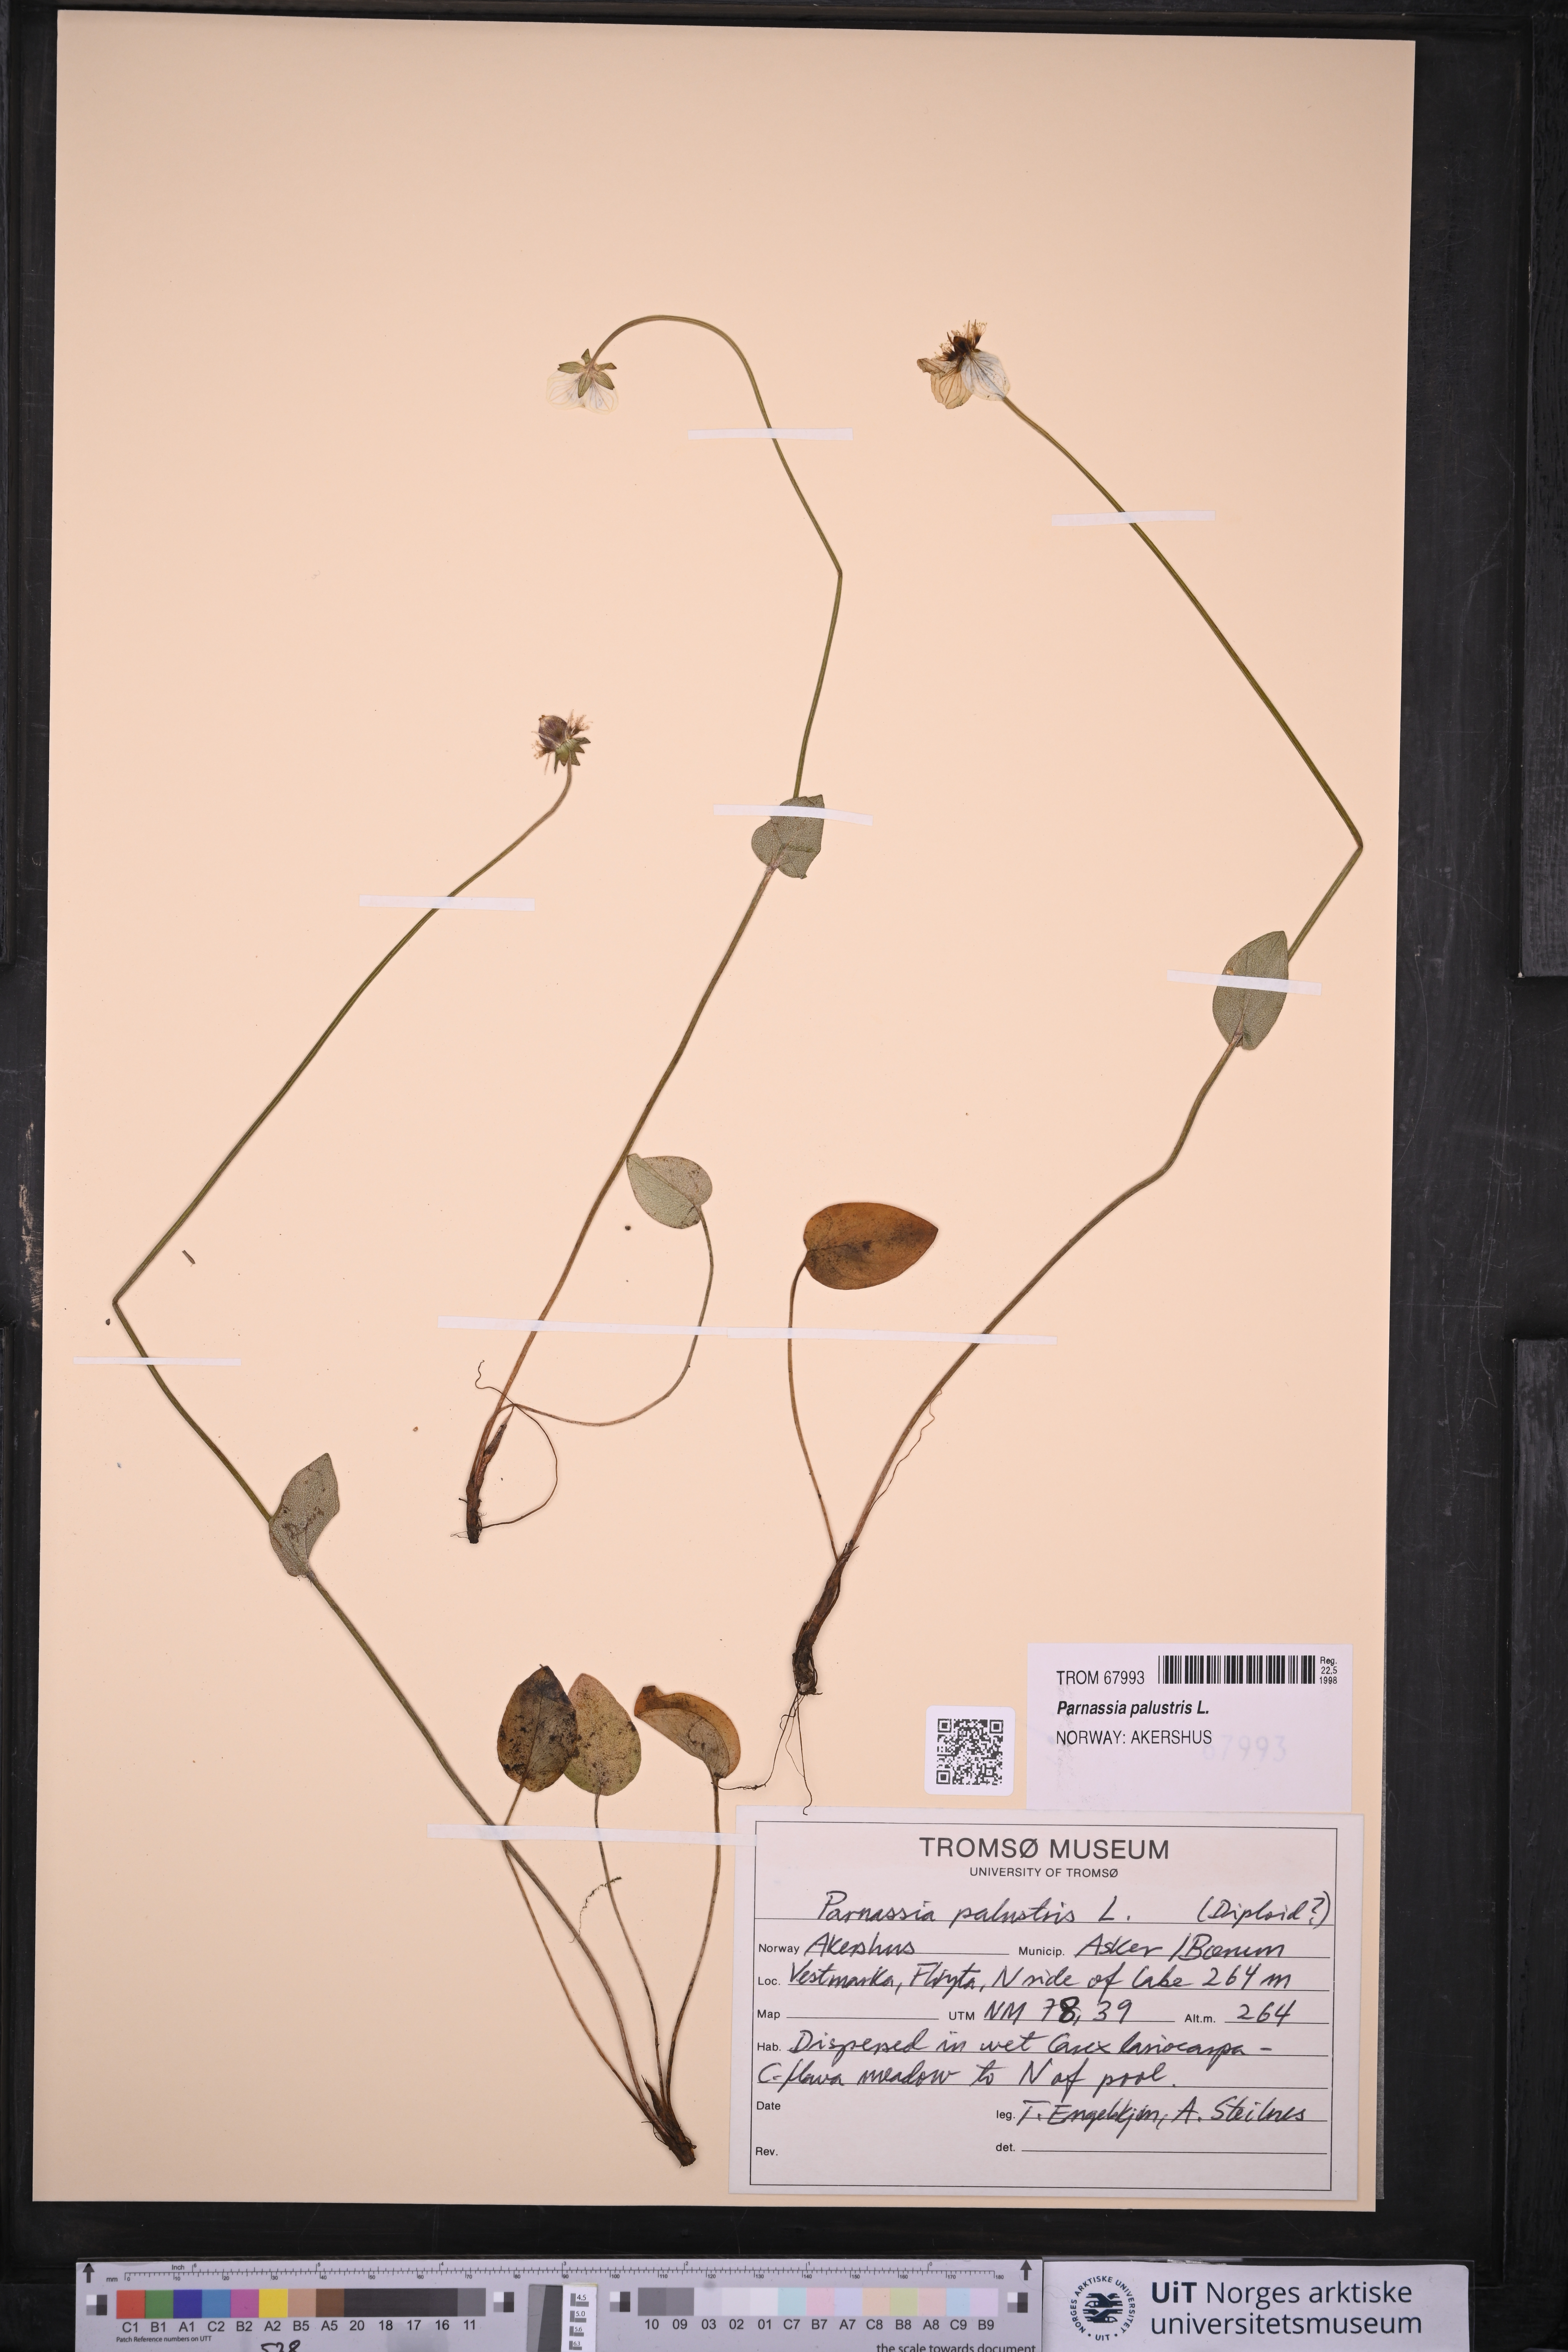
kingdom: Plantae
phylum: Tracheophyta
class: Magnoliopsida
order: Celastrales
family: Parnassiaceae
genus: Parnassia
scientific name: Parnassia palustris
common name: Grass-of-parnassus
